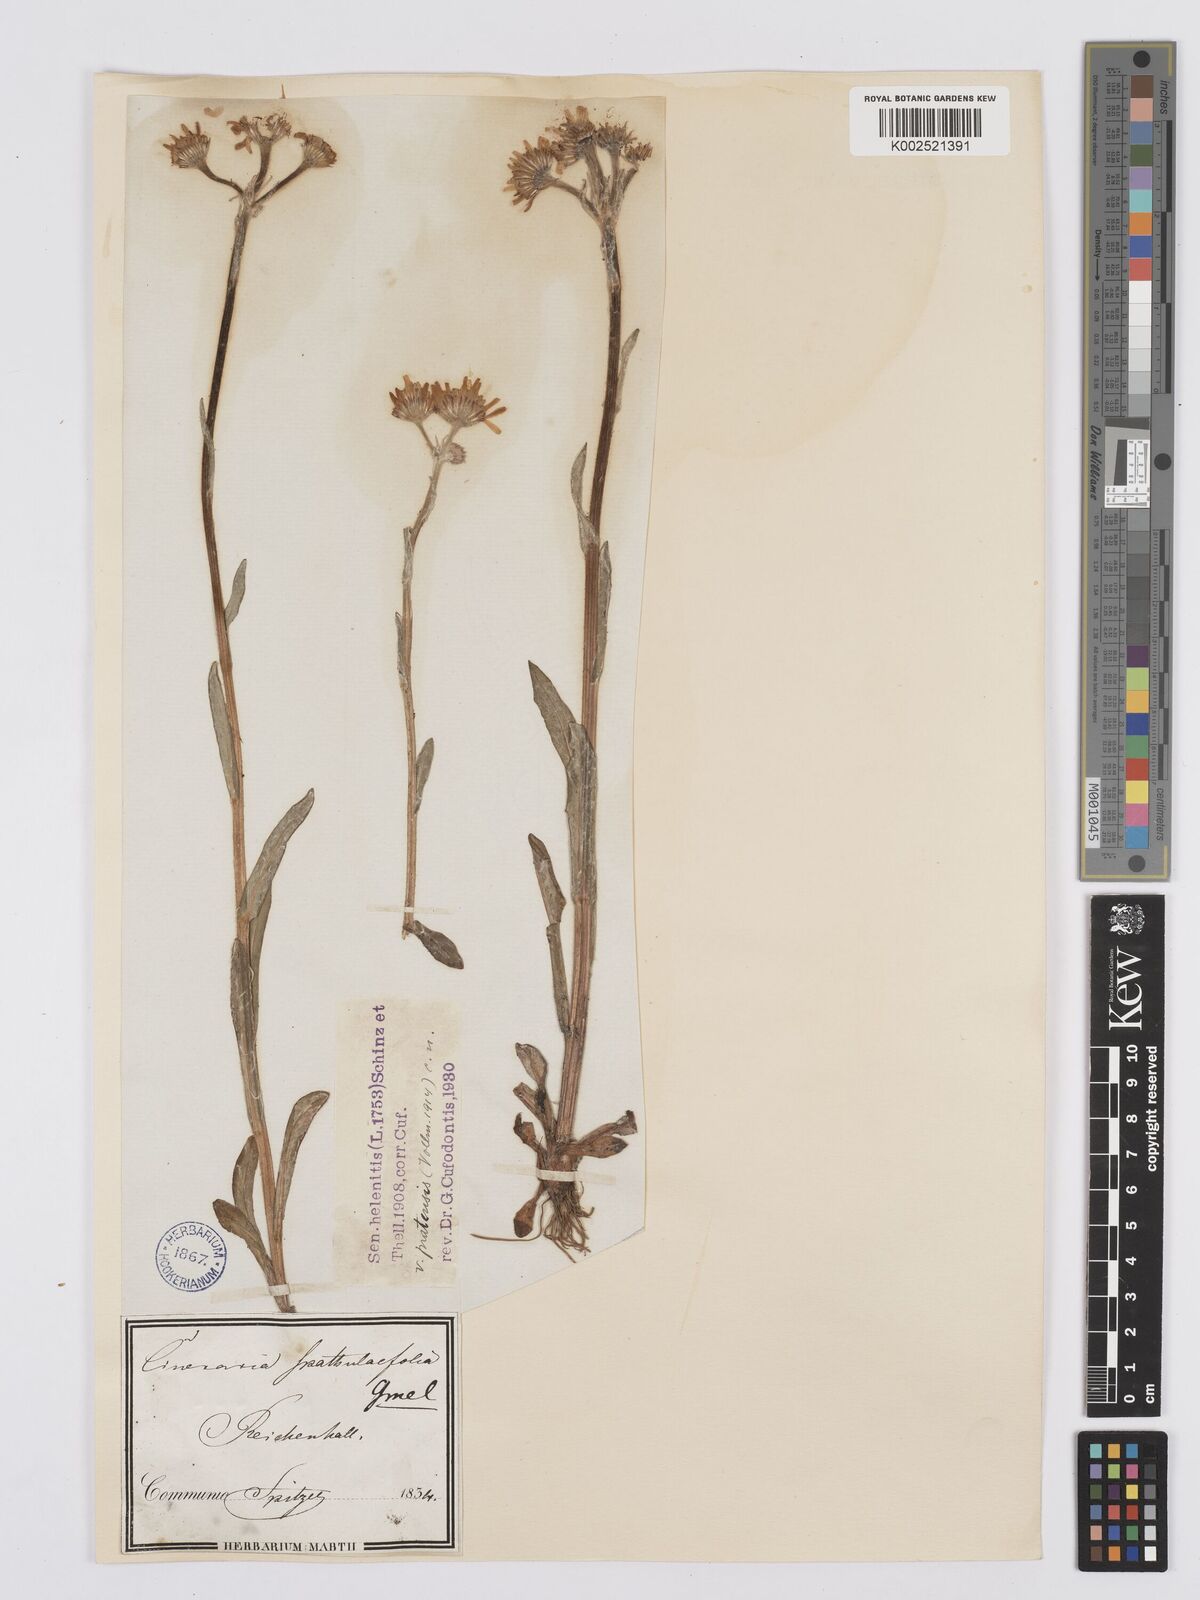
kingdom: Plantae
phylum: Tracheophyta
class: Magnoliopsida
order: Asterales
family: Asteraceae
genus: Tephroseris
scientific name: Tephroseris helenitis
